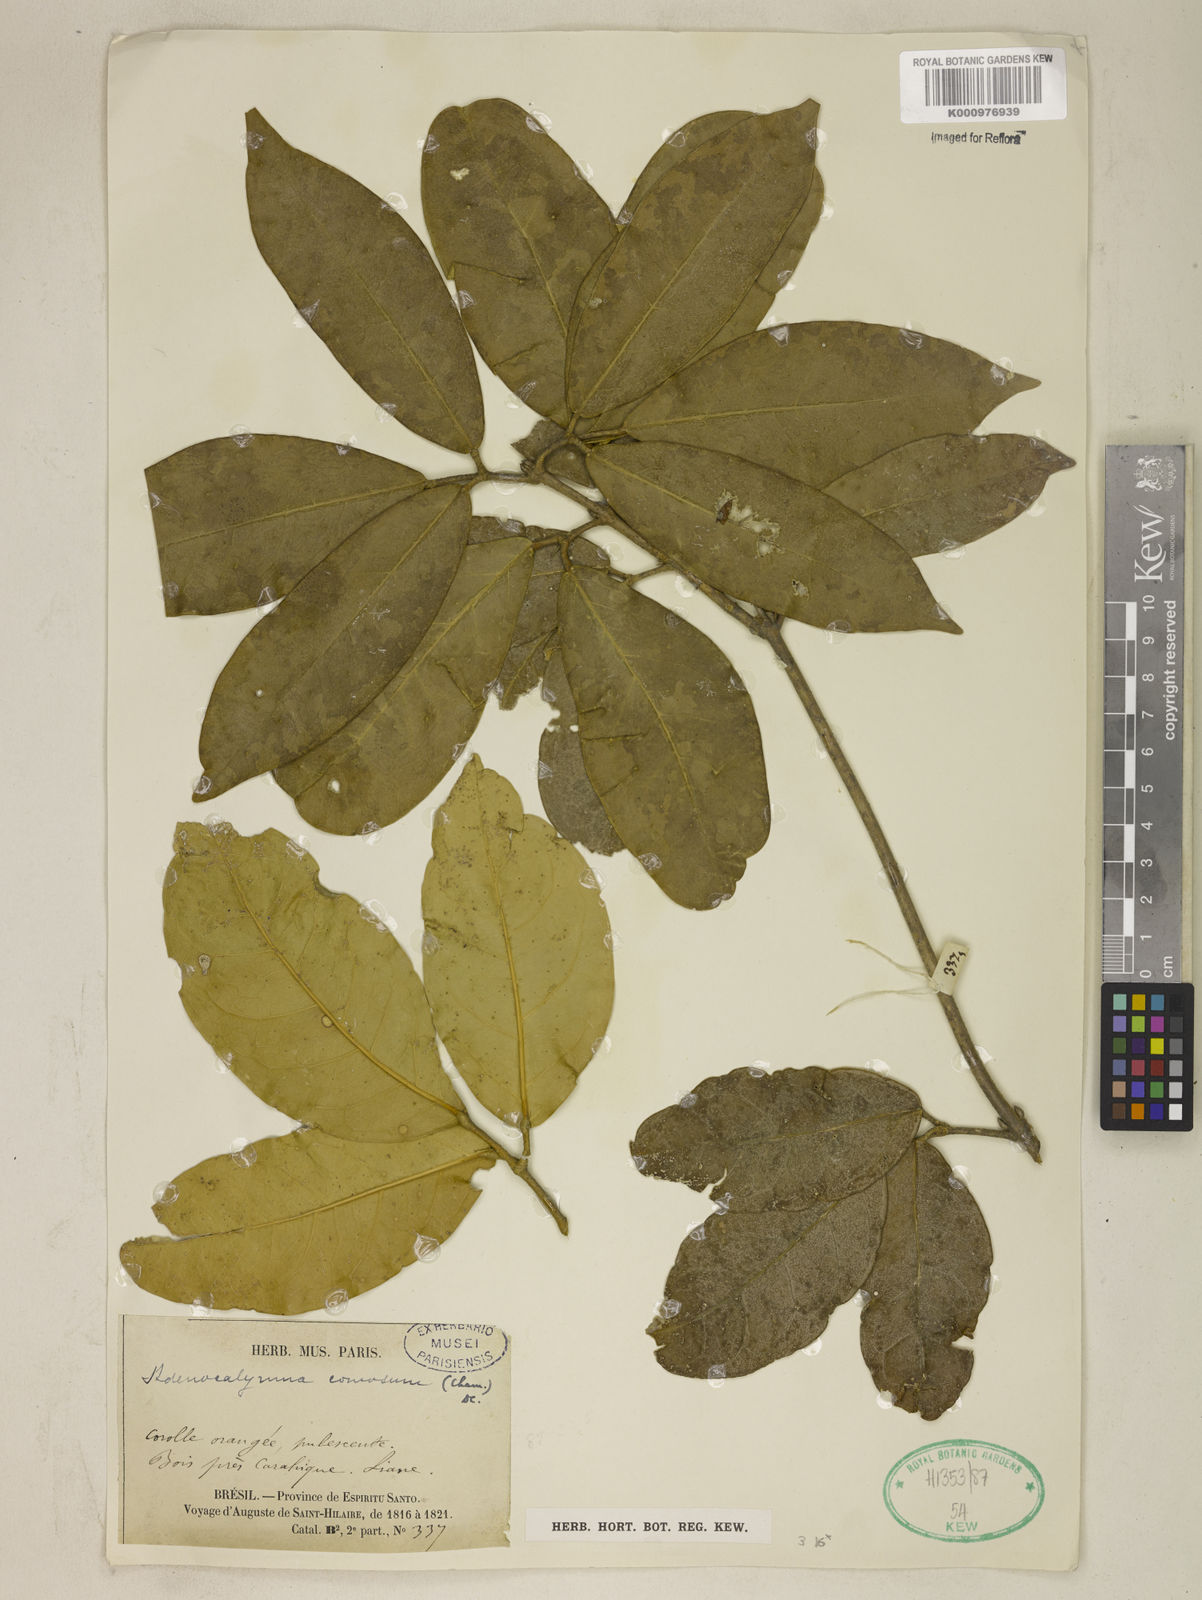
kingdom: Plantae
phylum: Tracheophyta
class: Magnoliopsida
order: Lamiales
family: Bignoniaceae
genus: Adenocalymma
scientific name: Adenocalymma acutissimum
